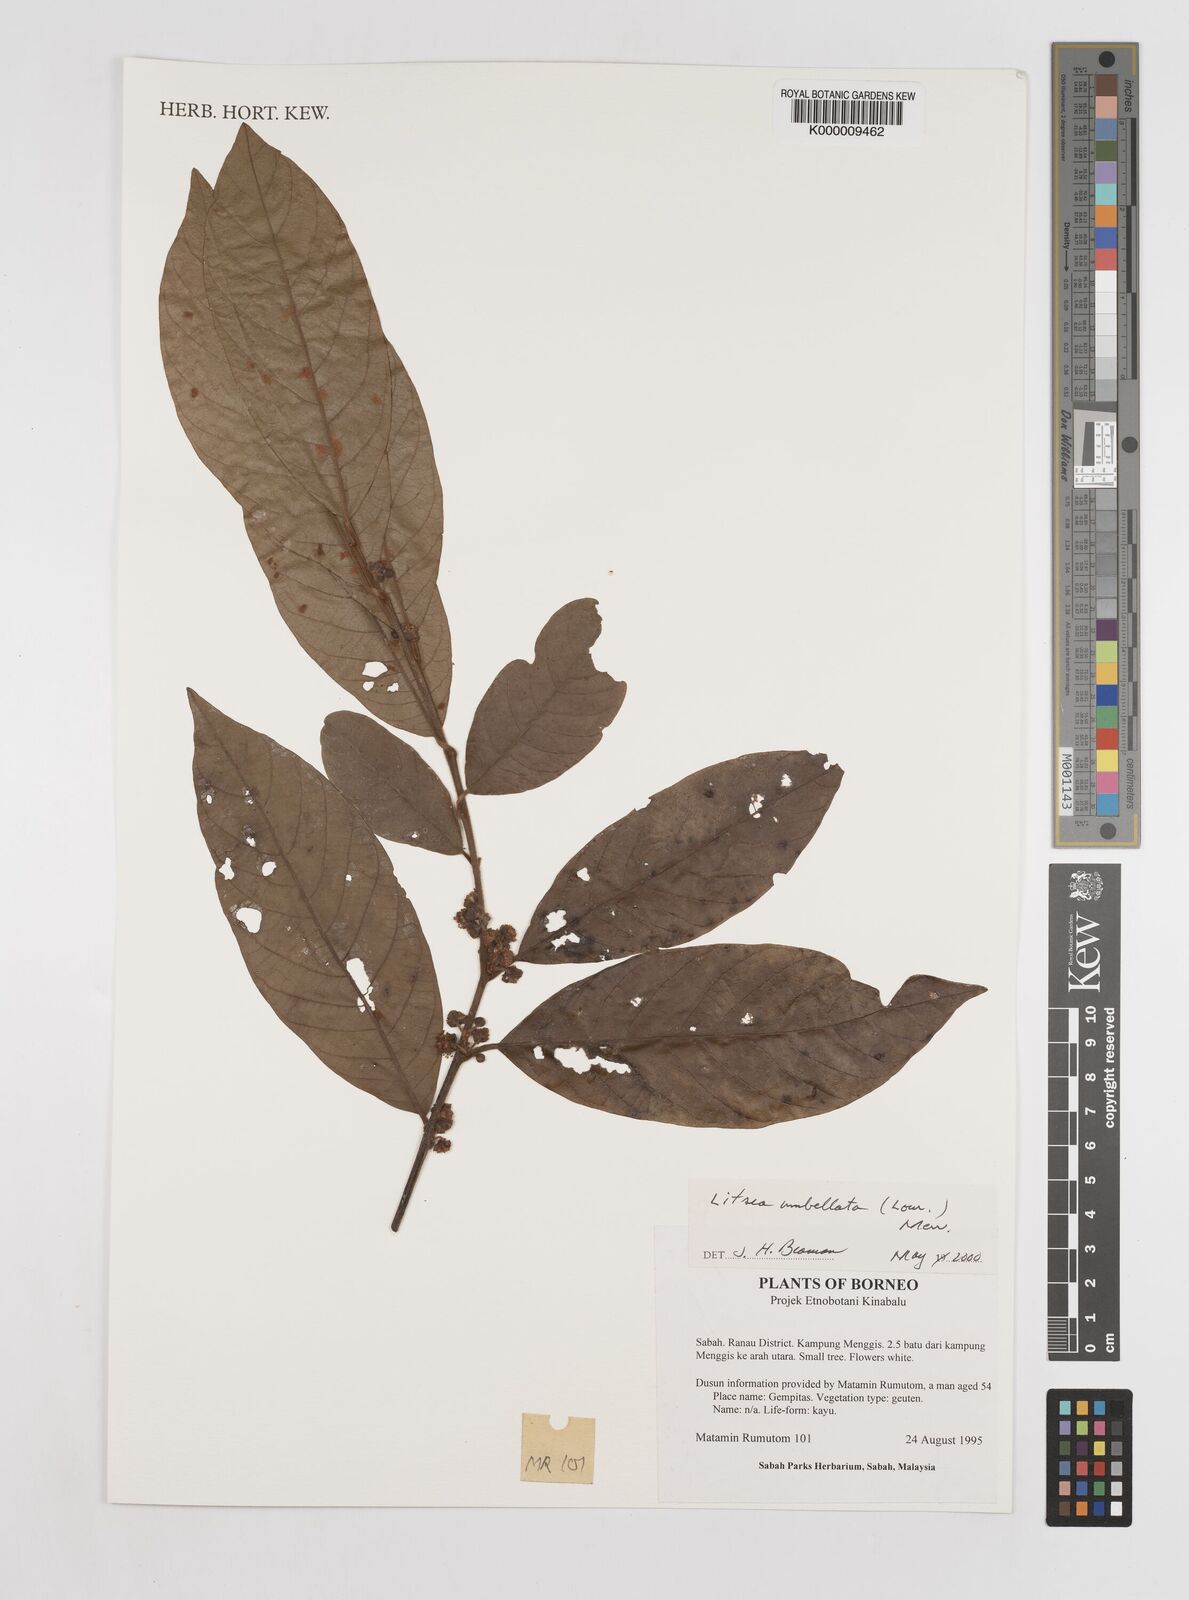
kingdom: Plantae
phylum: Tracheophyta
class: Magnoliopsida
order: Laurales
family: Lauraceae
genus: Litsea
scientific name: Litsea umbellata
